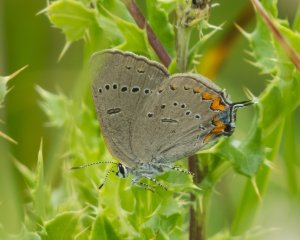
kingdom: Animalia
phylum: Arthropoda
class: Insecta
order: Lepidoptera
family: Lycaenidae
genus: Strymon
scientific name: Strymon acadica
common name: Acadian Hairstreak
